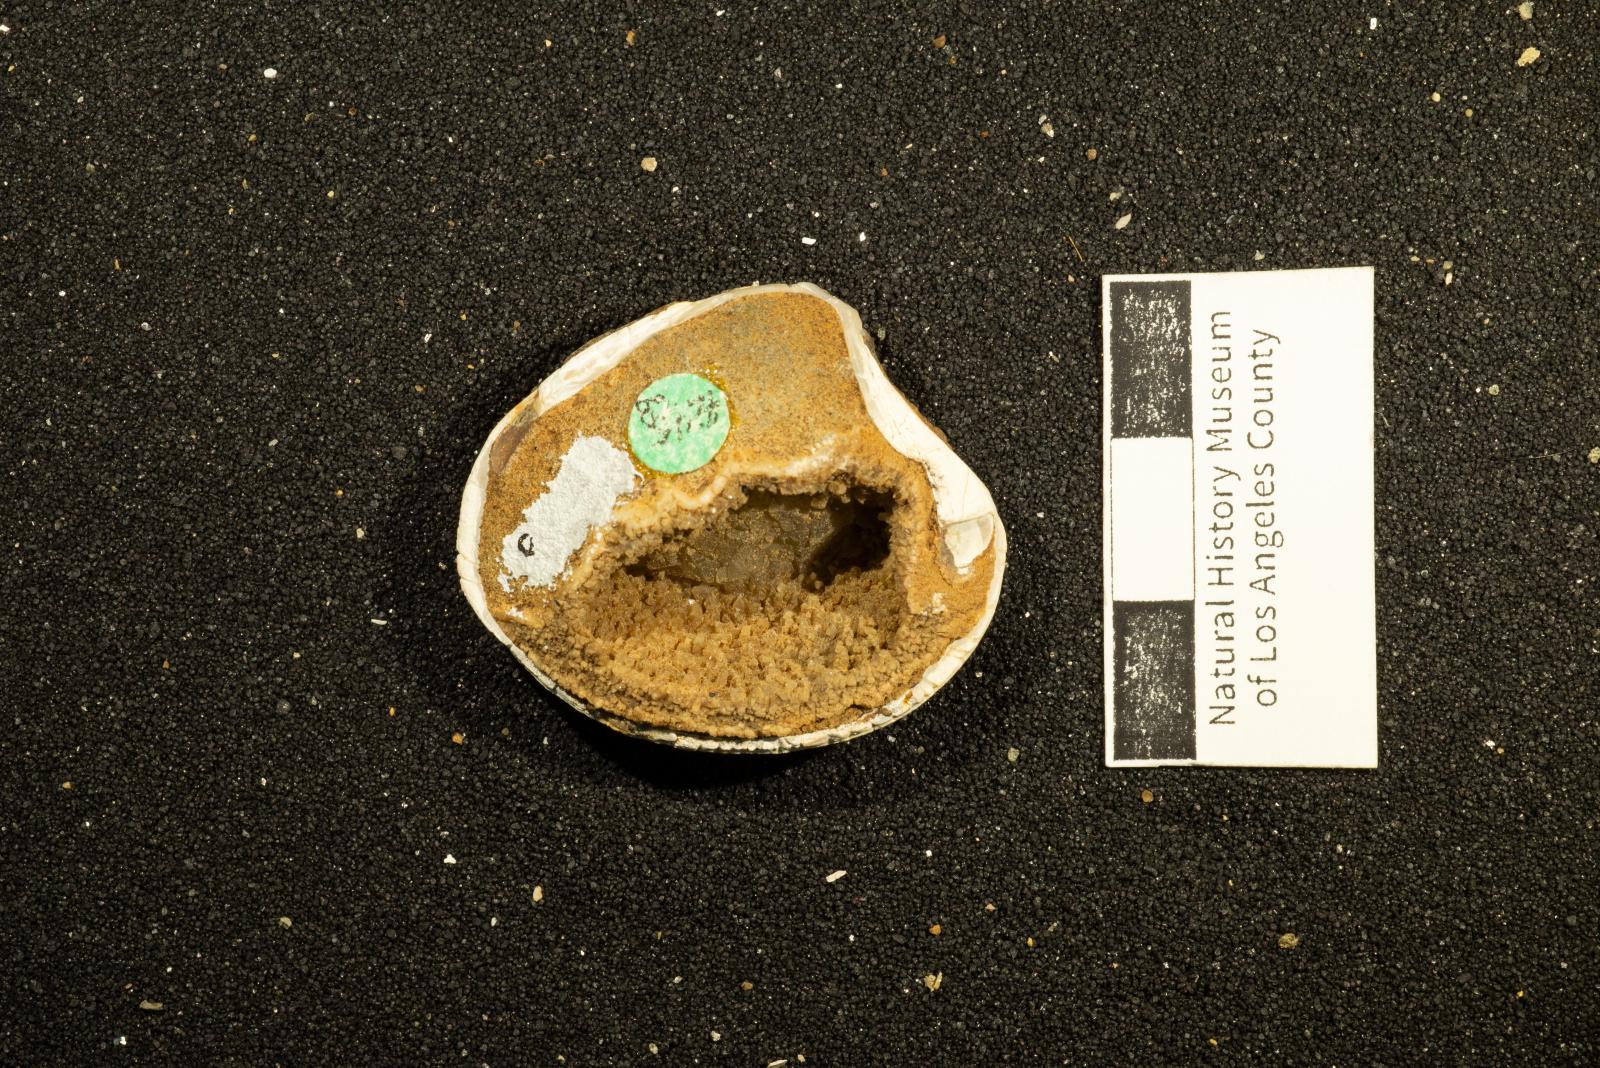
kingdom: Animalia
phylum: Mollusca
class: Bivalvia
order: Venerida
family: Veneridae
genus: Calva
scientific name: Calva Trigonocallista taffi
